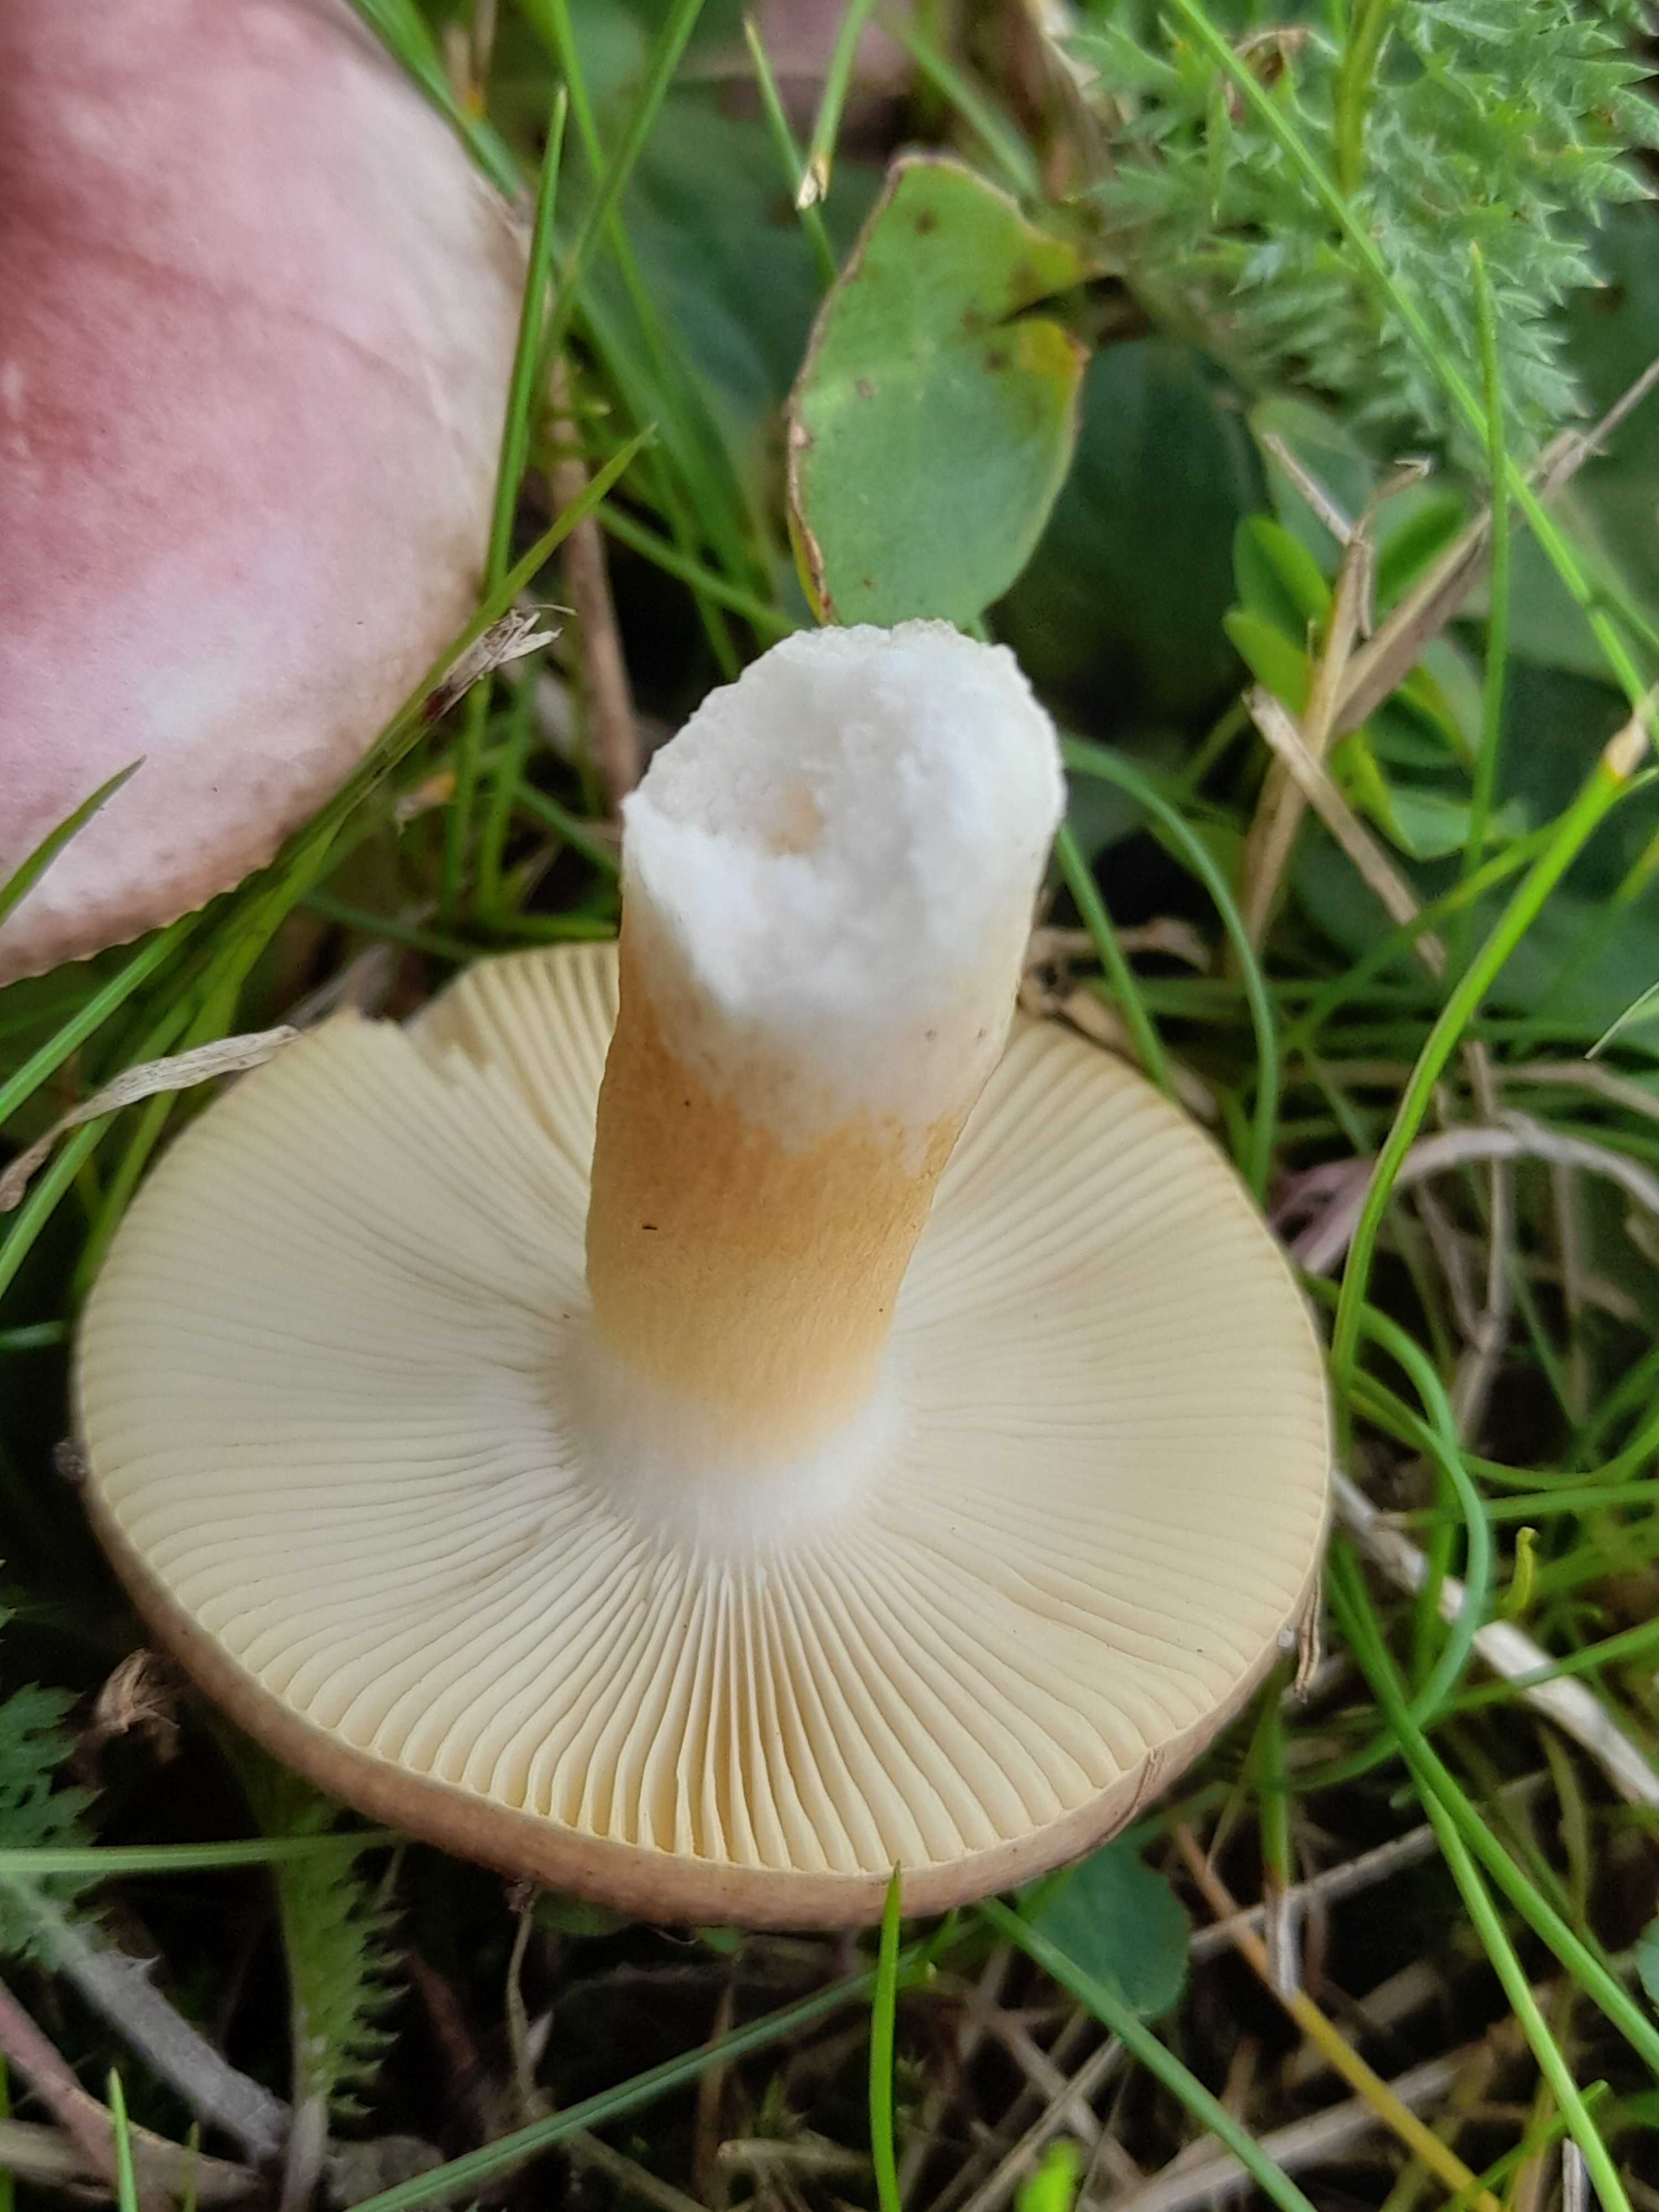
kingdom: Fungi
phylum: Basidiomycota
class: Agaricomycetes
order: Russulales
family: Russulaceae
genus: Russula
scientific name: Russula
